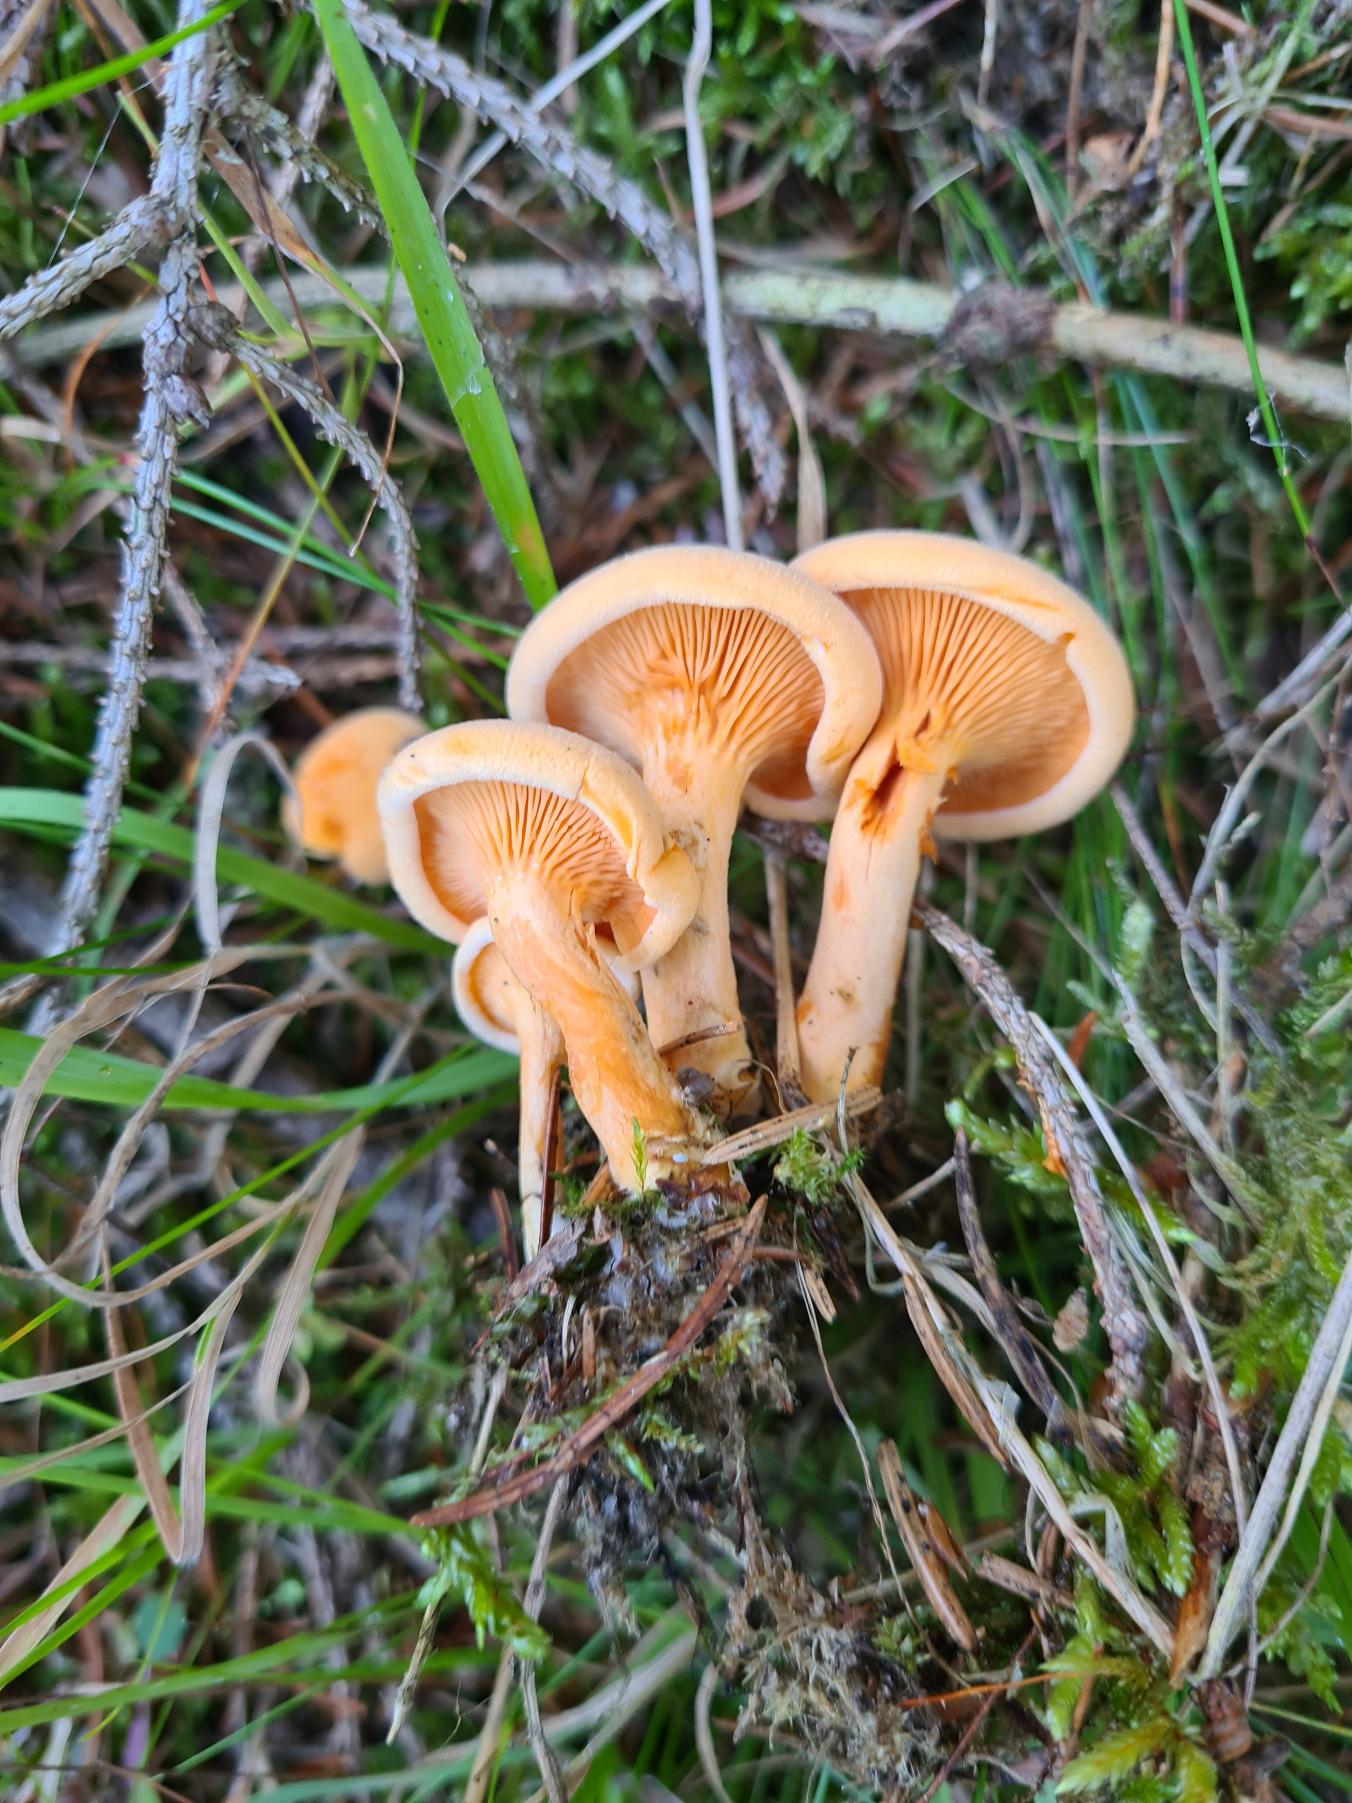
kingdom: Fungi
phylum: Basidiomycota
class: Agaricomycetes
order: Boletales
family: Hygrophoropsidaceae
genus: Hygrophoropsis
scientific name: Hygrophoropsis aurantiaca
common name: Almindelig orangekantarel
